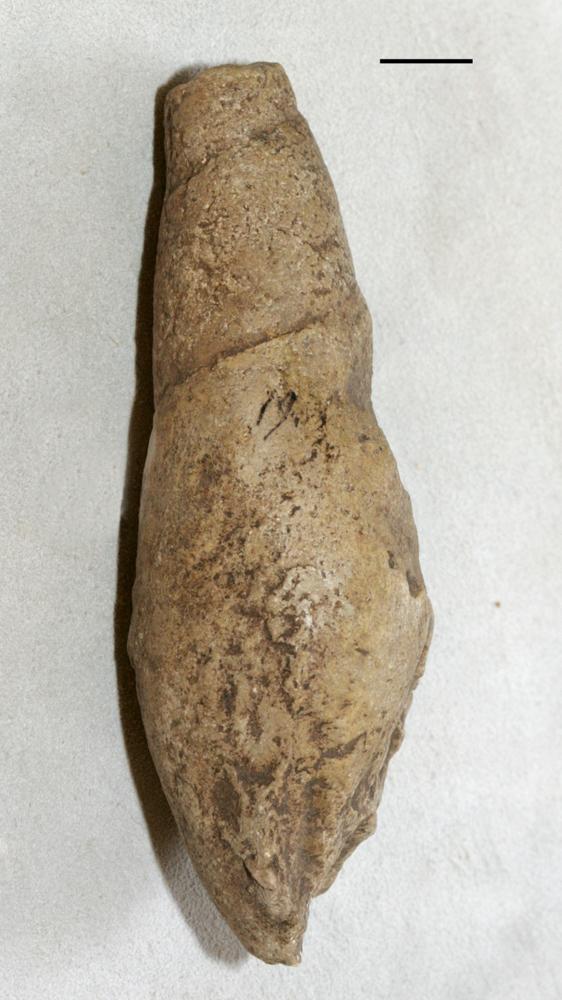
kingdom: Animalia
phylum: Mollusca
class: Gastropoda
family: Subulitidae
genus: Subulites
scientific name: Subulites Phasianella gigas
